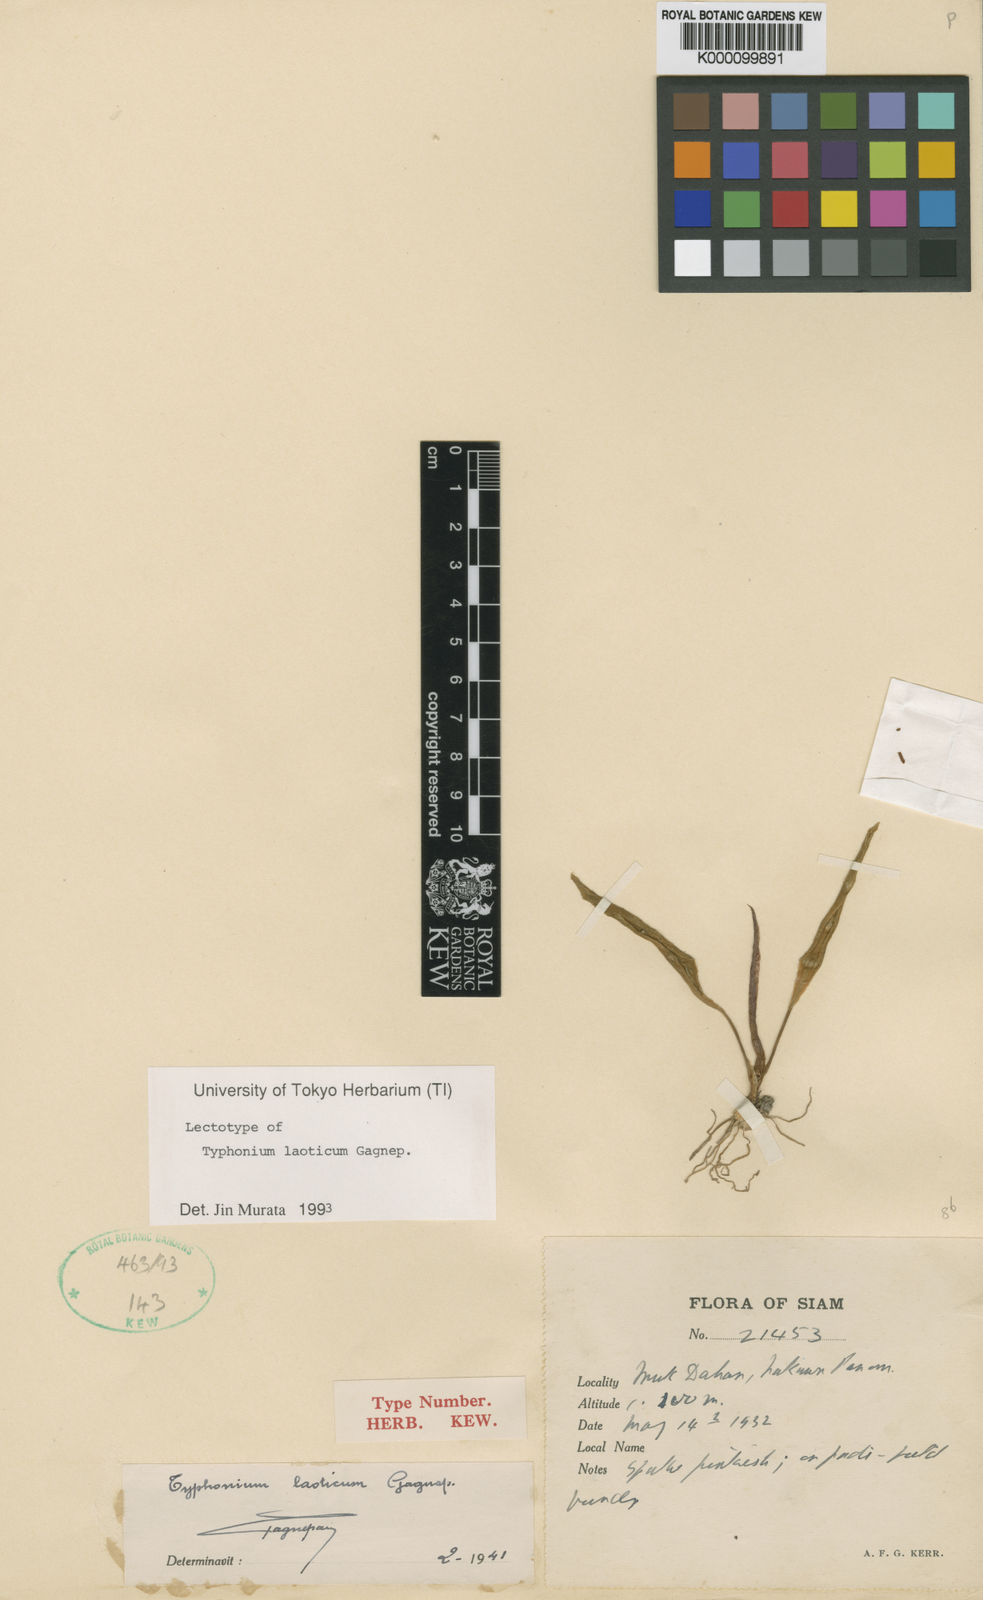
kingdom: Plantae
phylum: Tracheophyta
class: Liliopsida
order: Alismatales
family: Araceae
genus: Typhonium
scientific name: Typhonium laoticum
